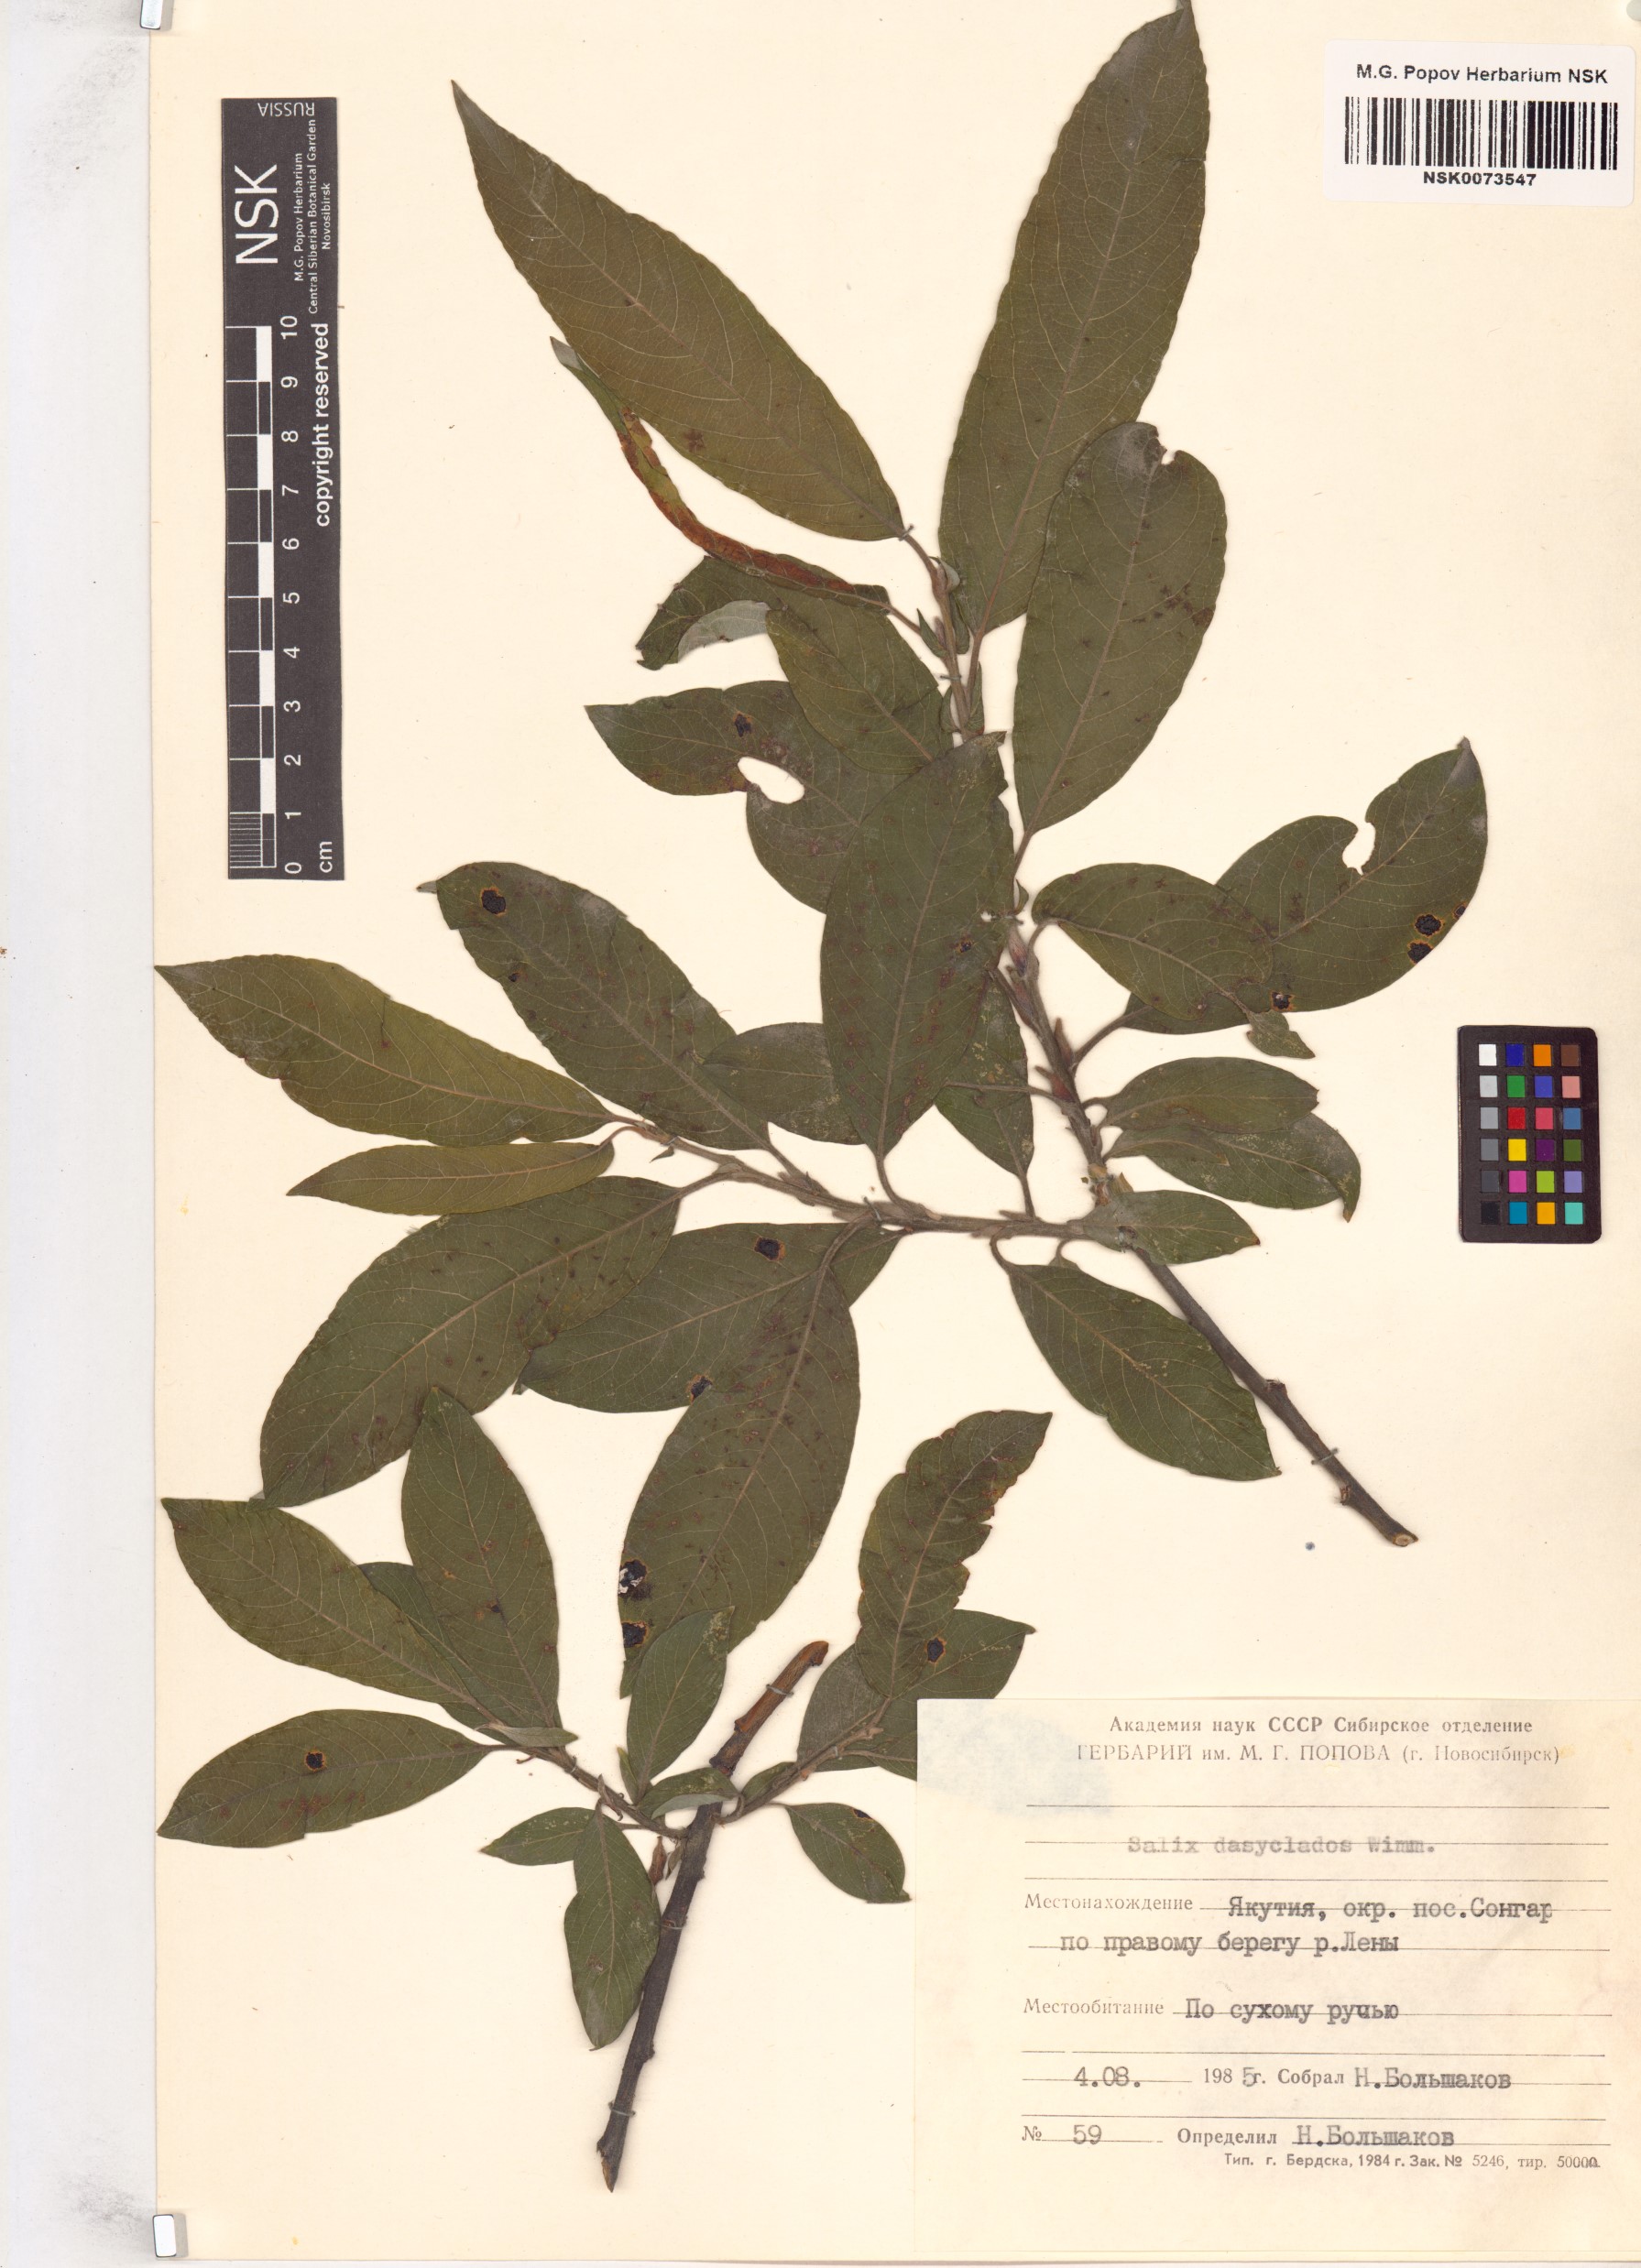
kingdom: Plantae
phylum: Tracheophyta
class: Magnoliopsida
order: Malpighiales
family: Salicaceae
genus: Salix
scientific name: Salix gmelinii
